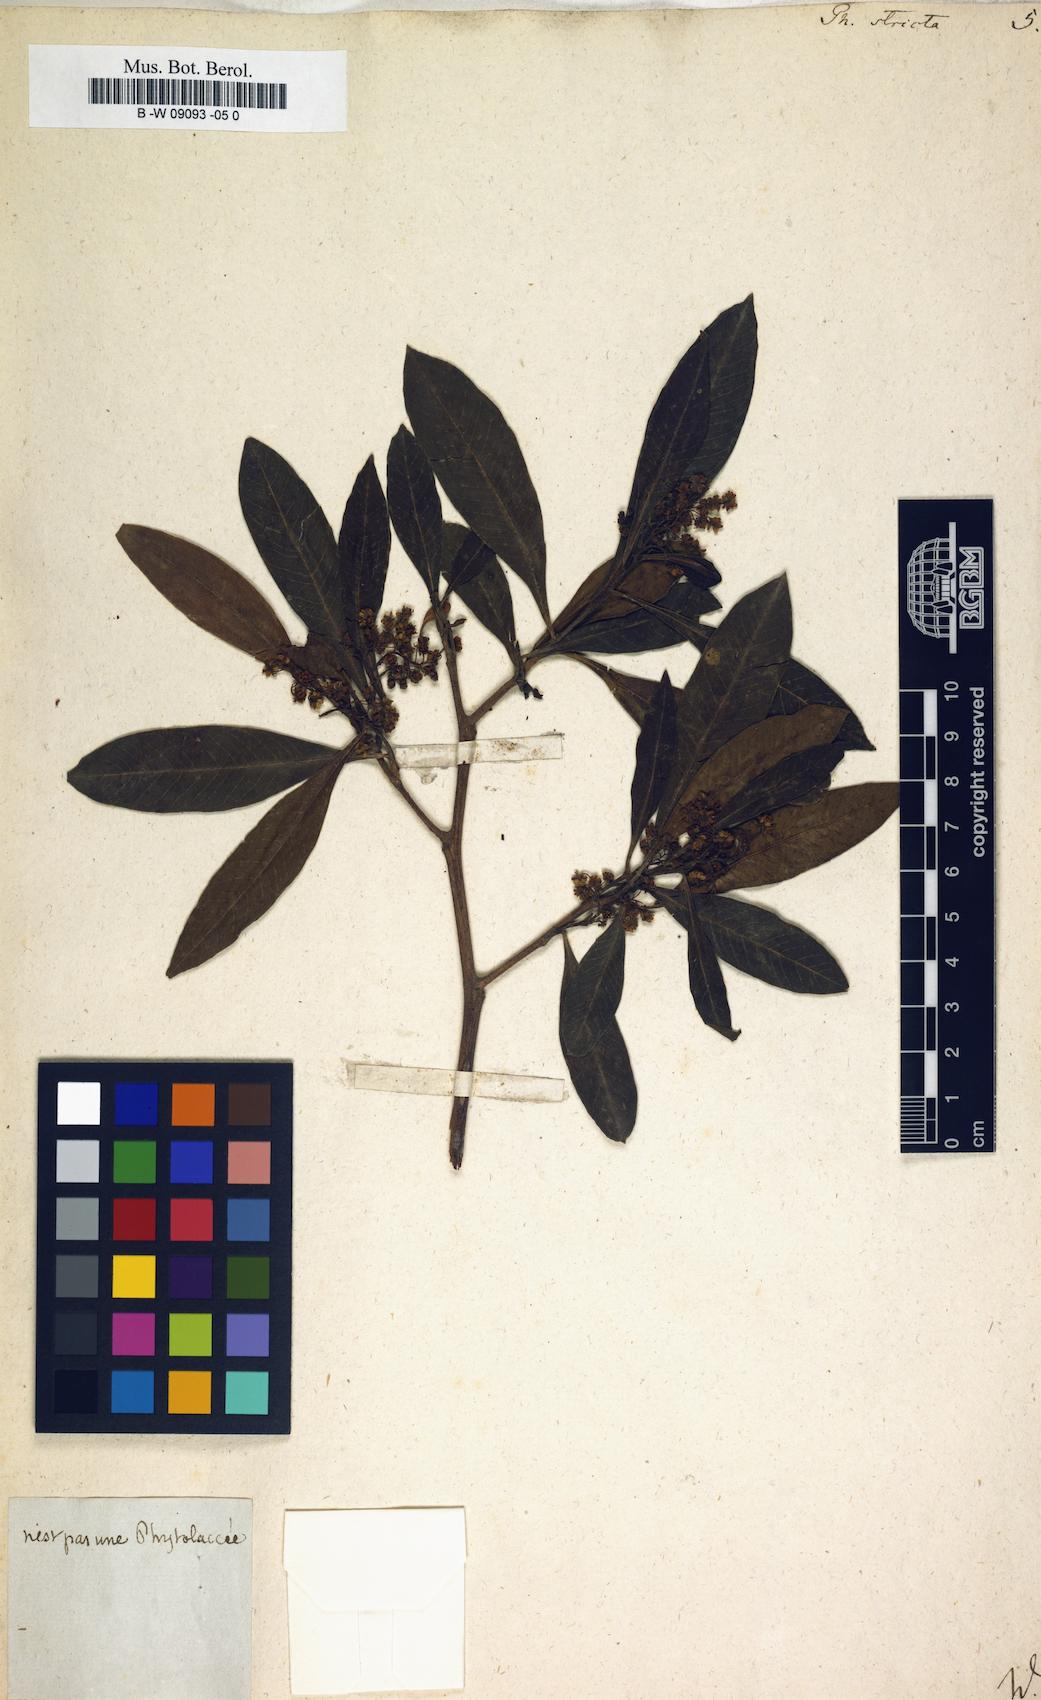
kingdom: Plantae
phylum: Tracheophyta
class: Magnoliopsida
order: Caryophyllales
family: Phytolaccaceae
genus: Phytolacca
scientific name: Phytolacca heptandra
